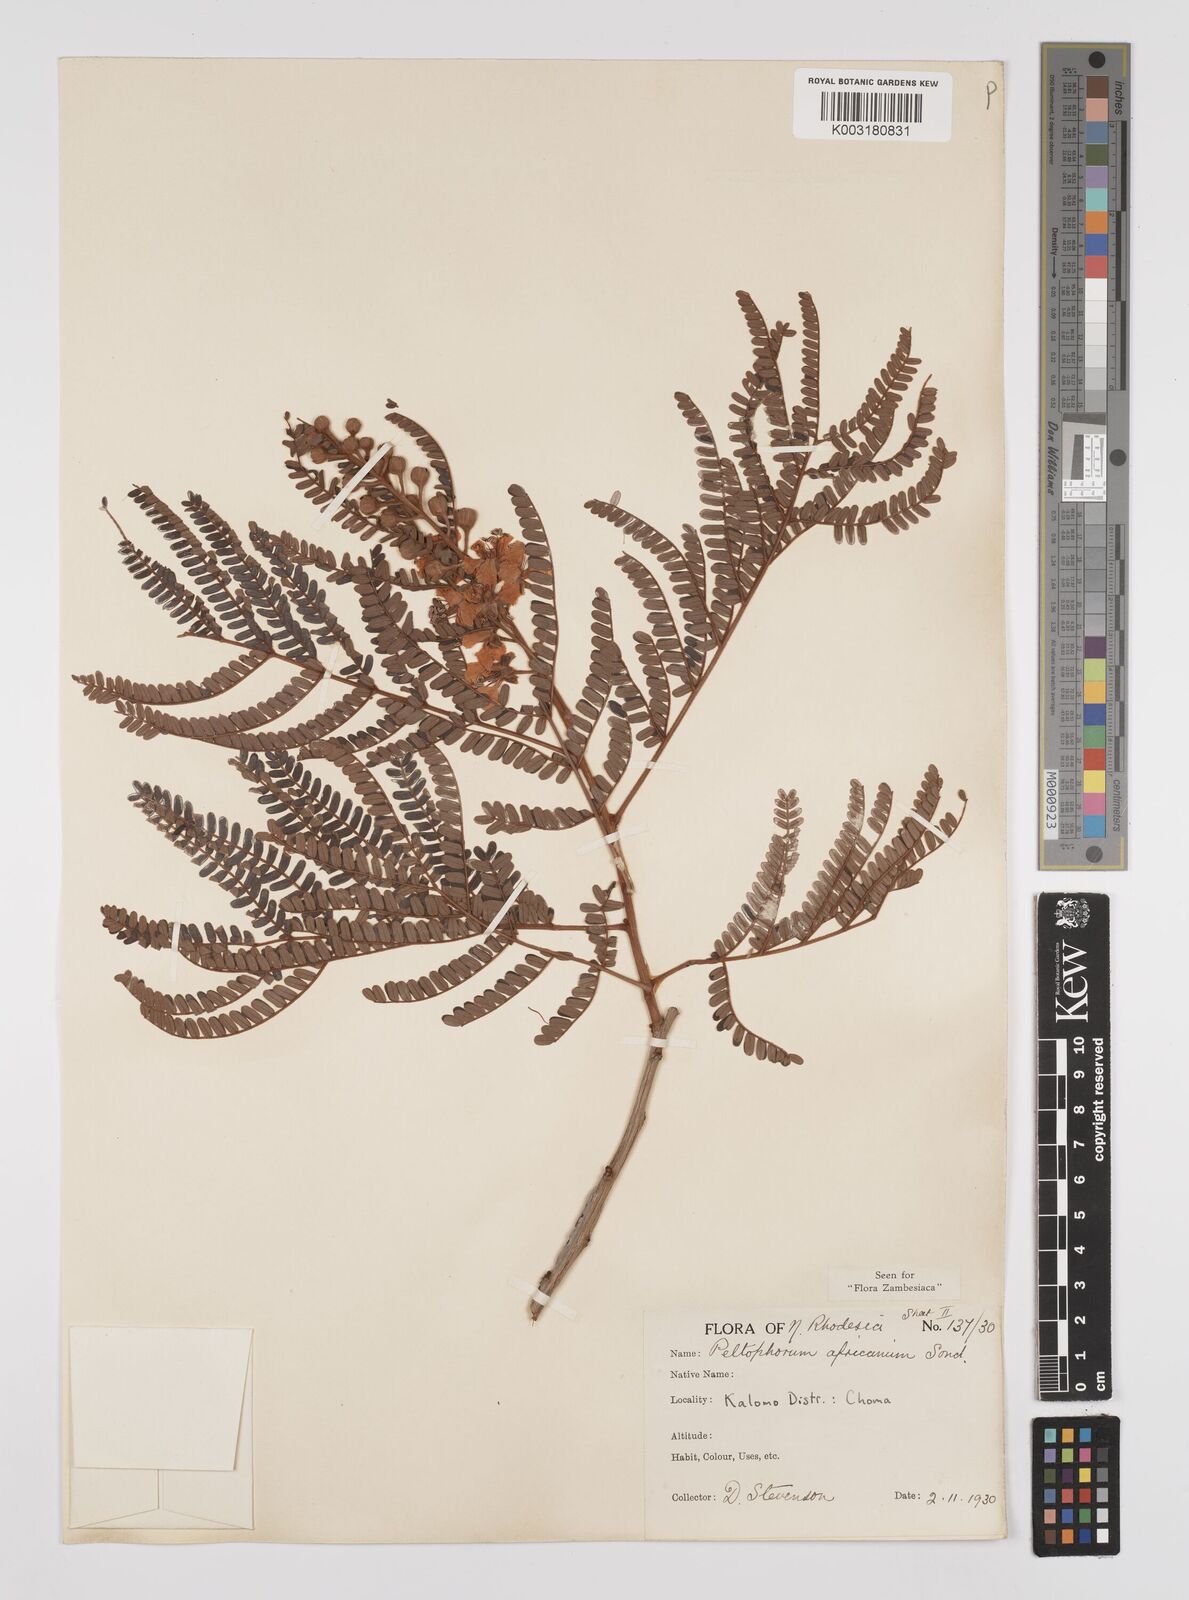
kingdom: Plantae
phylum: Tracheophyta
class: Magnoliopsida
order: Fabales
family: Fabaceae
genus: Peltophorum
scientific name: Peltophorum africanum
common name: African black wattle
